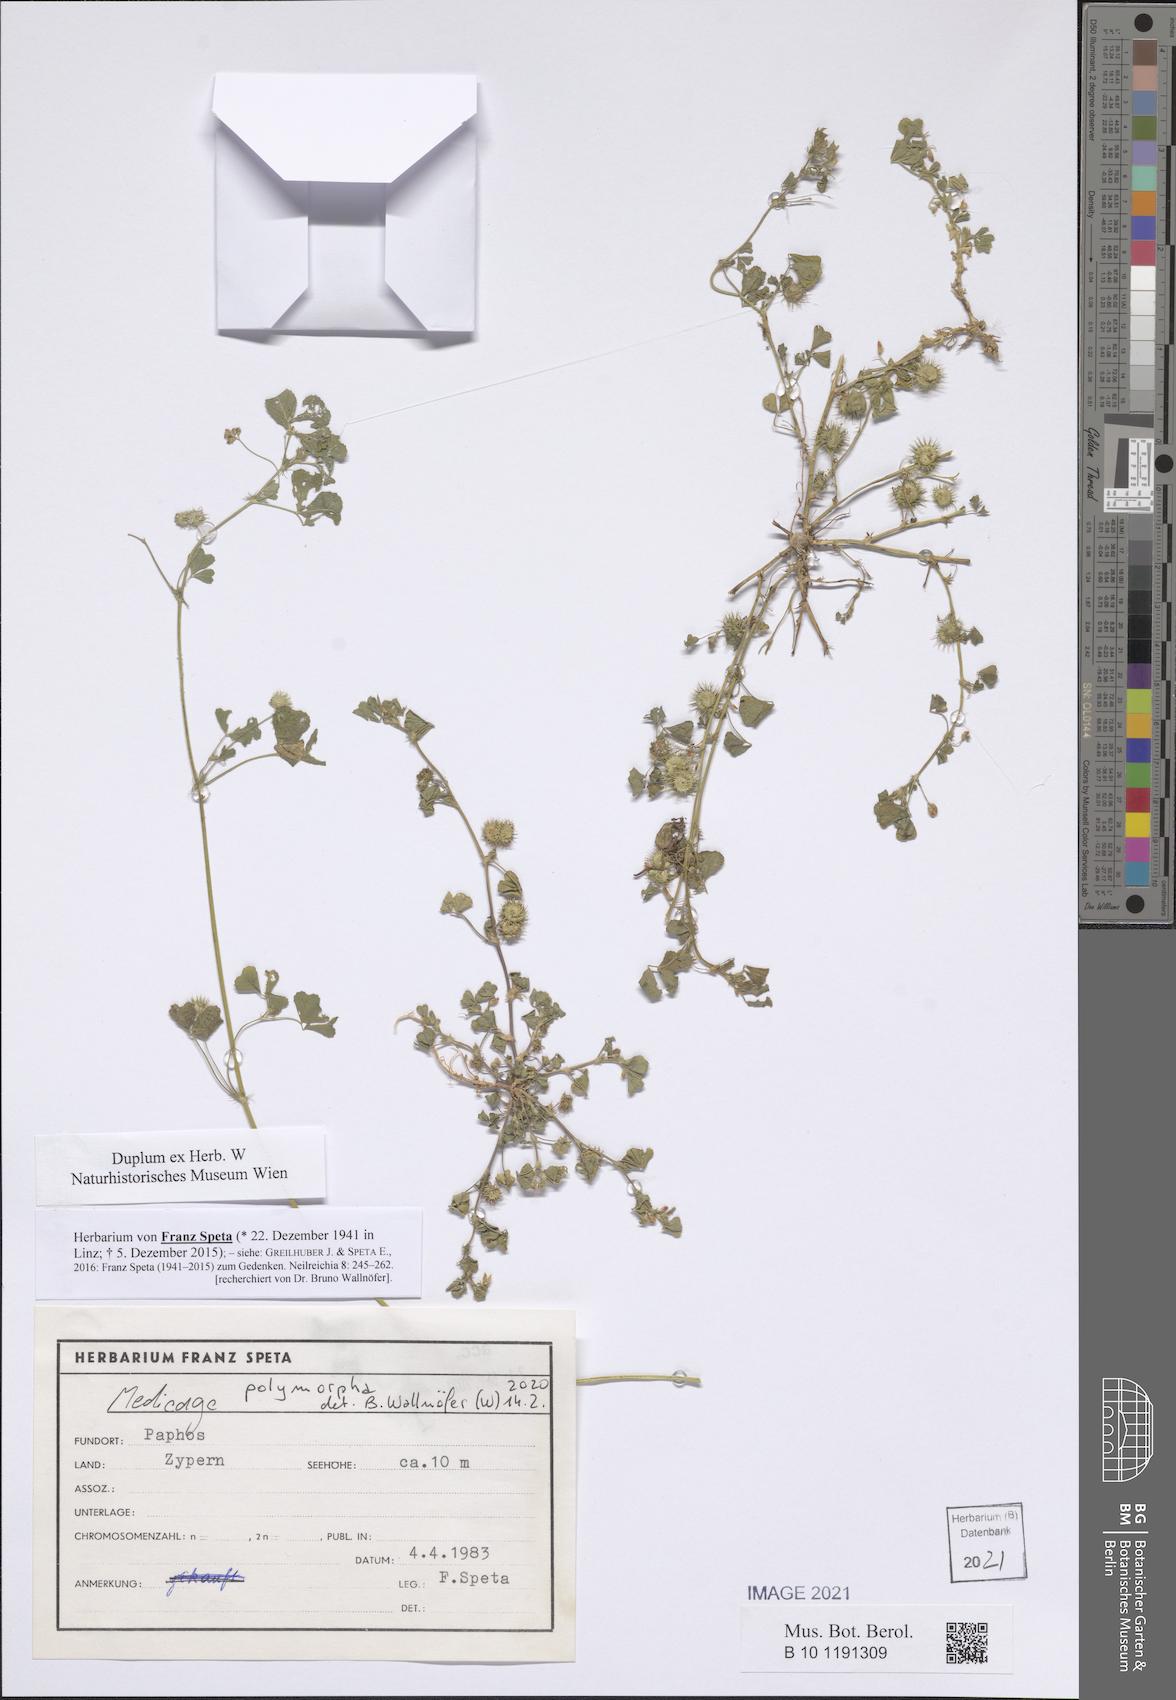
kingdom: Plantae
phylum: Tracheophyta
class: Magnoliopsida
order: Fabales
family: Fabaceae
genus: Medicago
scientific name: Medicago polymorpha
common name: Burclover
